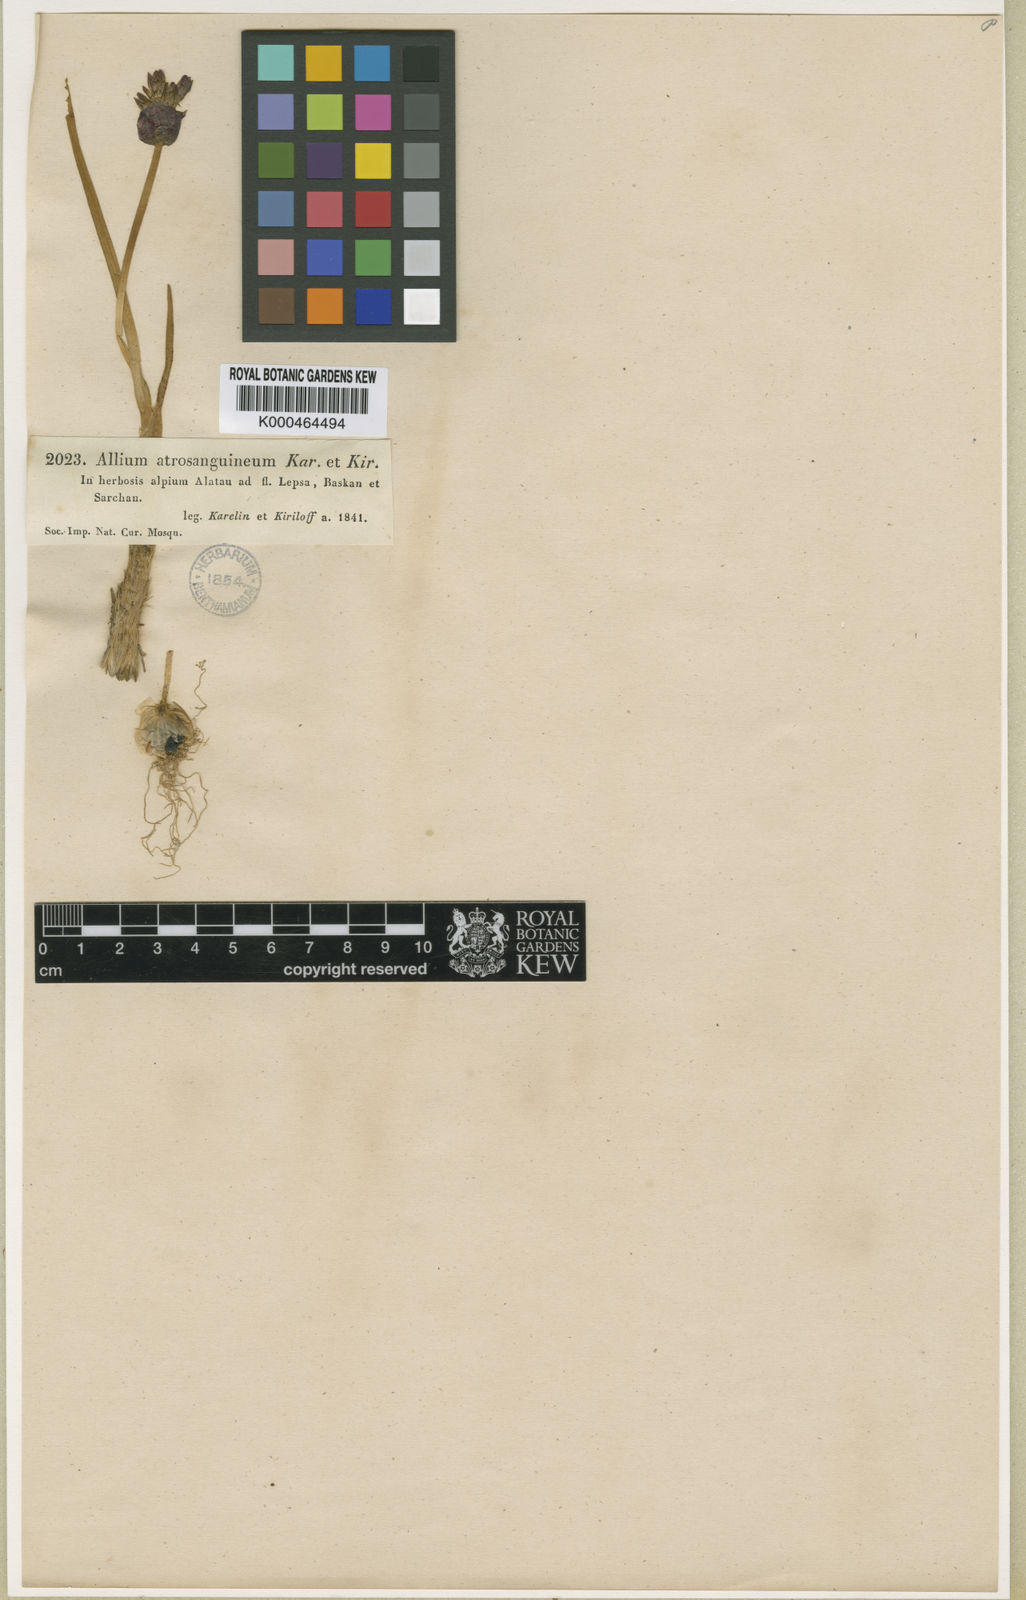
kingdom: Plantae
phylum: Tracheophyta
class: Liliopsida
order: Asparagales
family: Amaryllidaceae
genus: Allium
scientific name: Allium atrosanguineum
